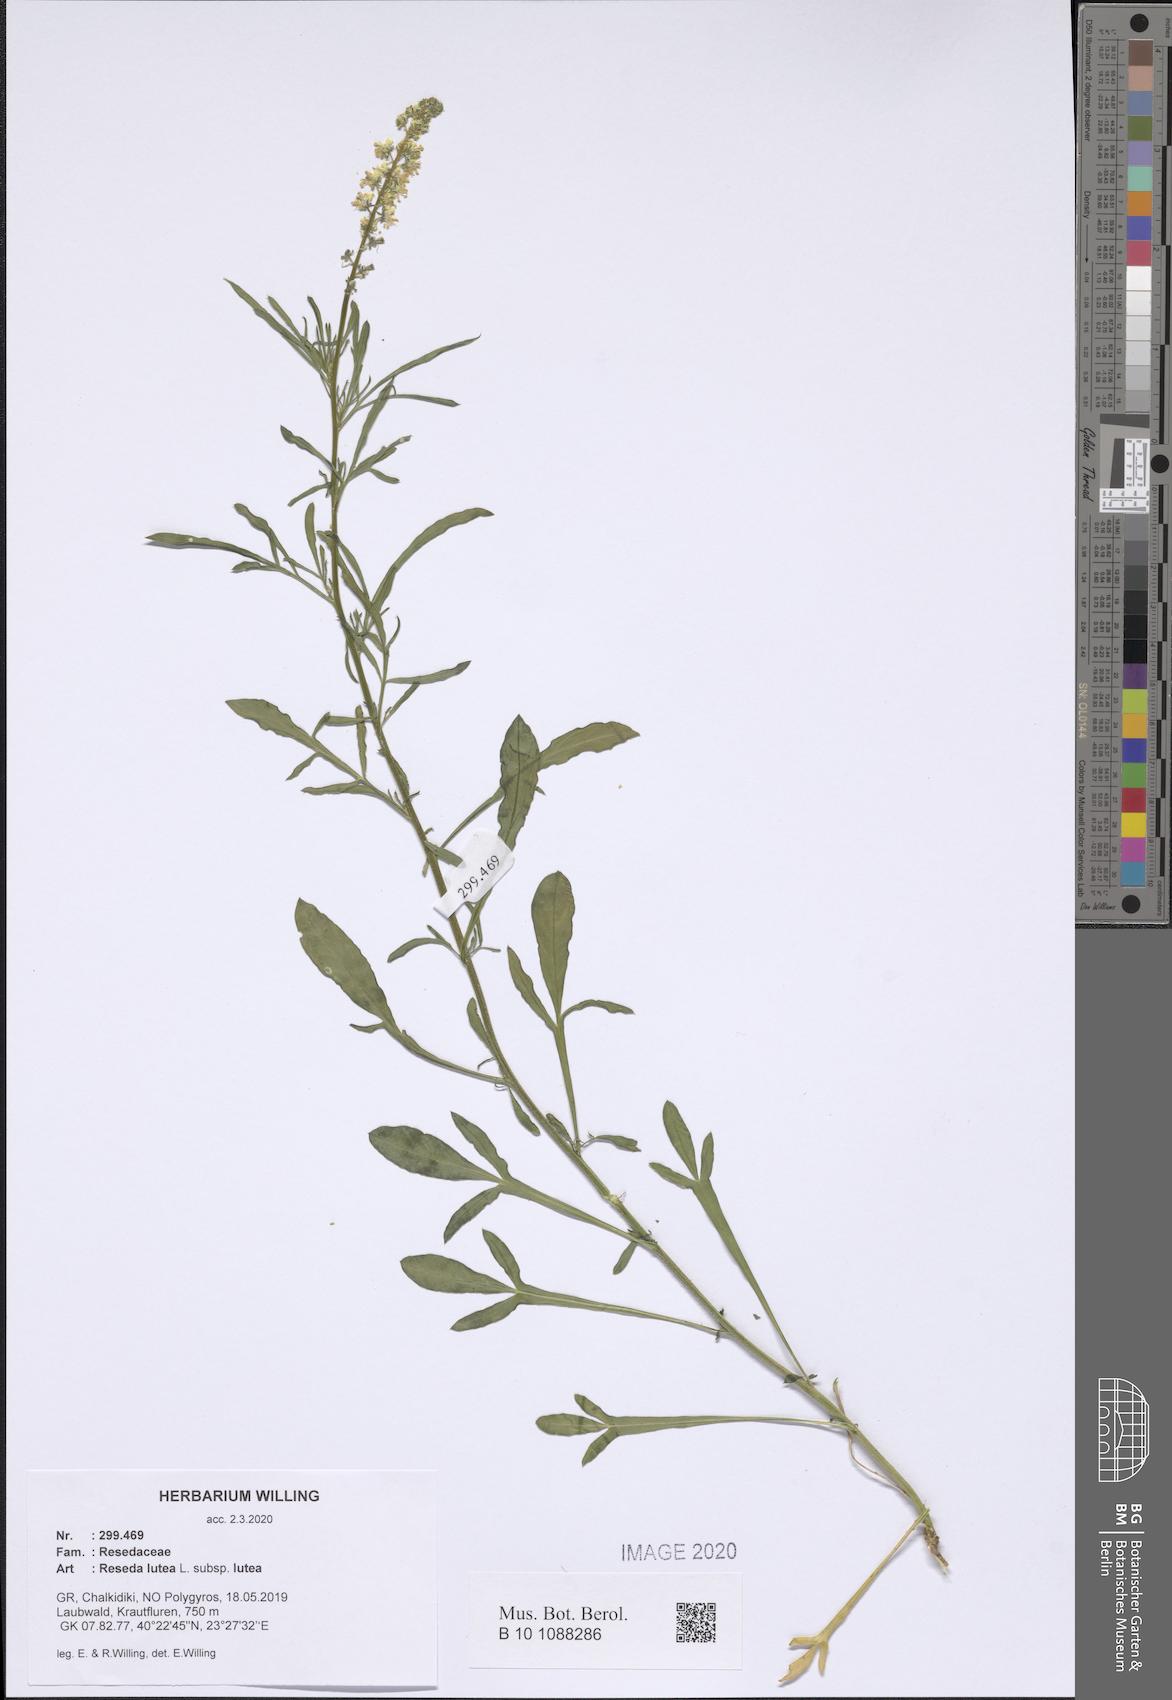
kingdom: Plantae
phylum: Tracheophyta
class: Magnoliopsida
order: Brassicales
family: Resedaceae
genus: Reseda
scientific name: Reseda lutea
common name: Wild mignonette
